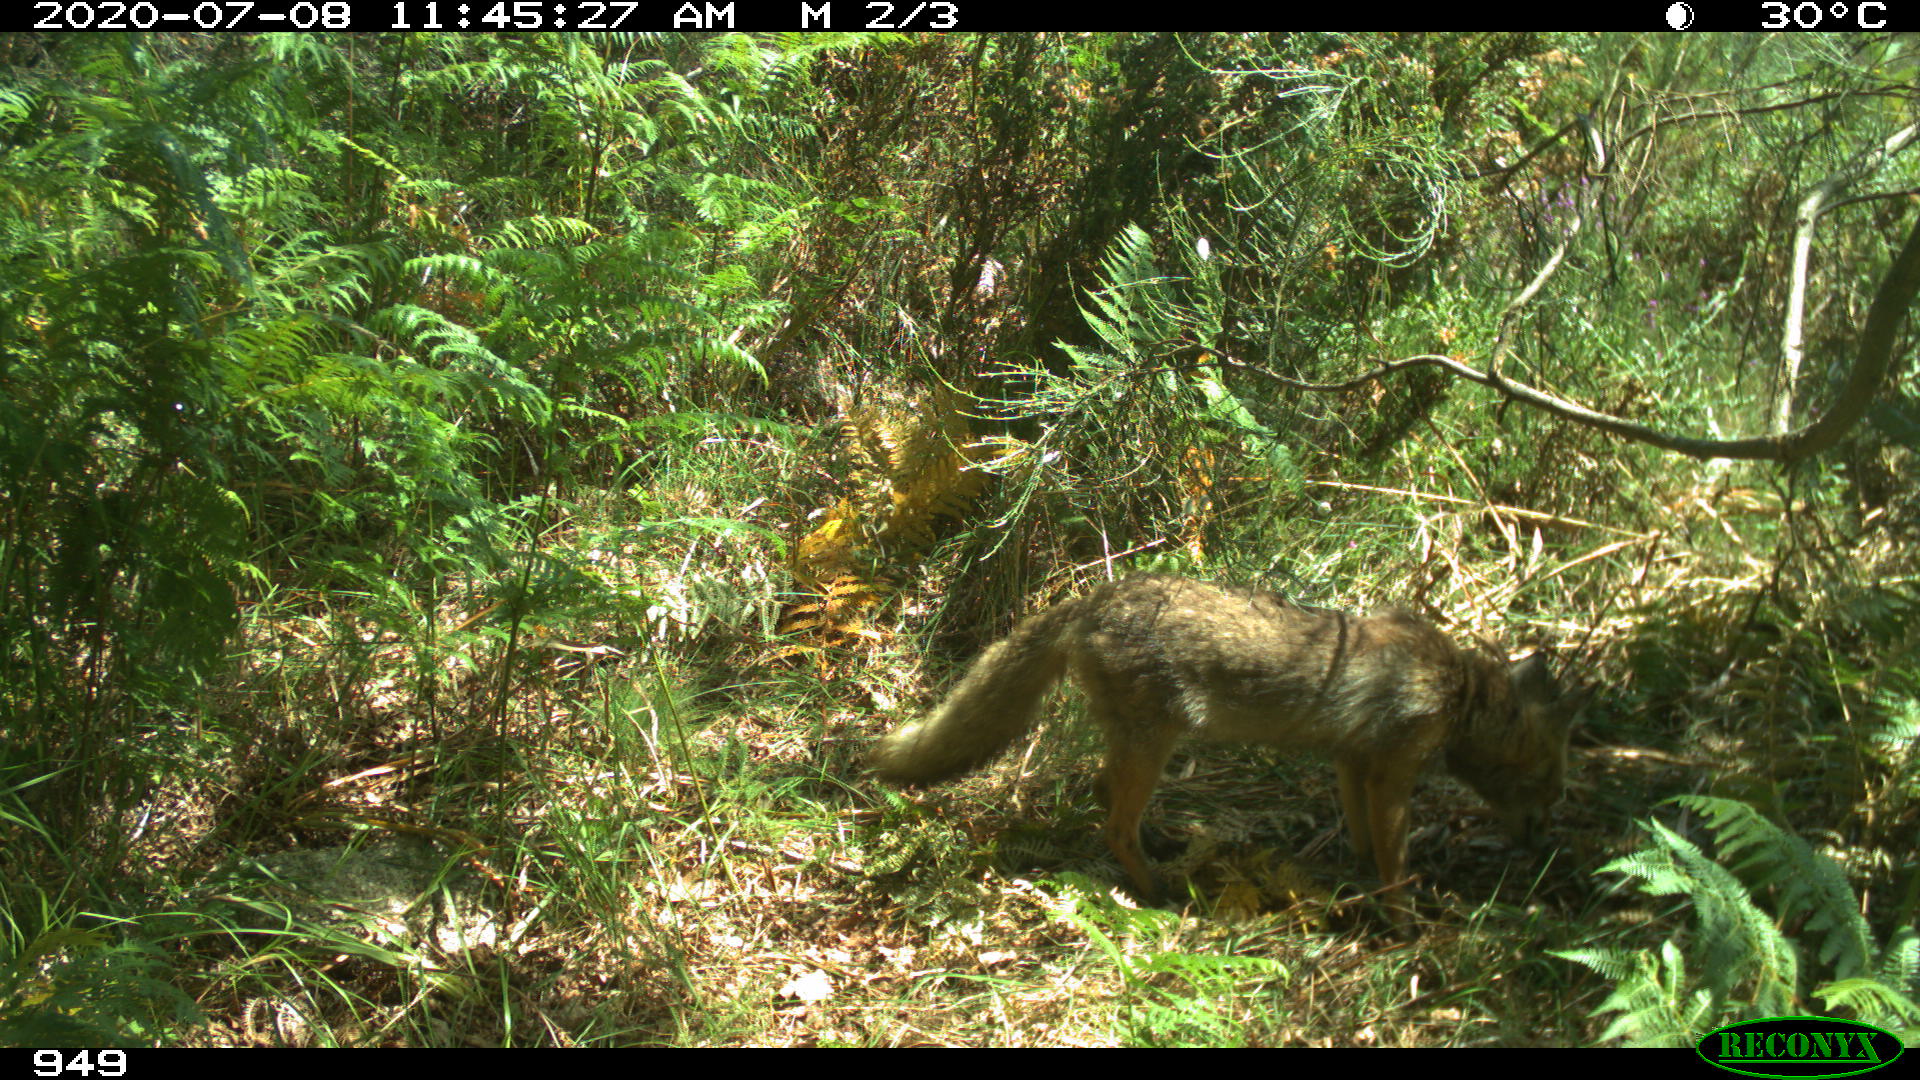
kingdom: Animalia
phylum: Chordata
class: Mammalia
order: Carnivora
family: Canidae
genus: Vulpes
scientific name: Vulpes vulpes
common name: Red fox
